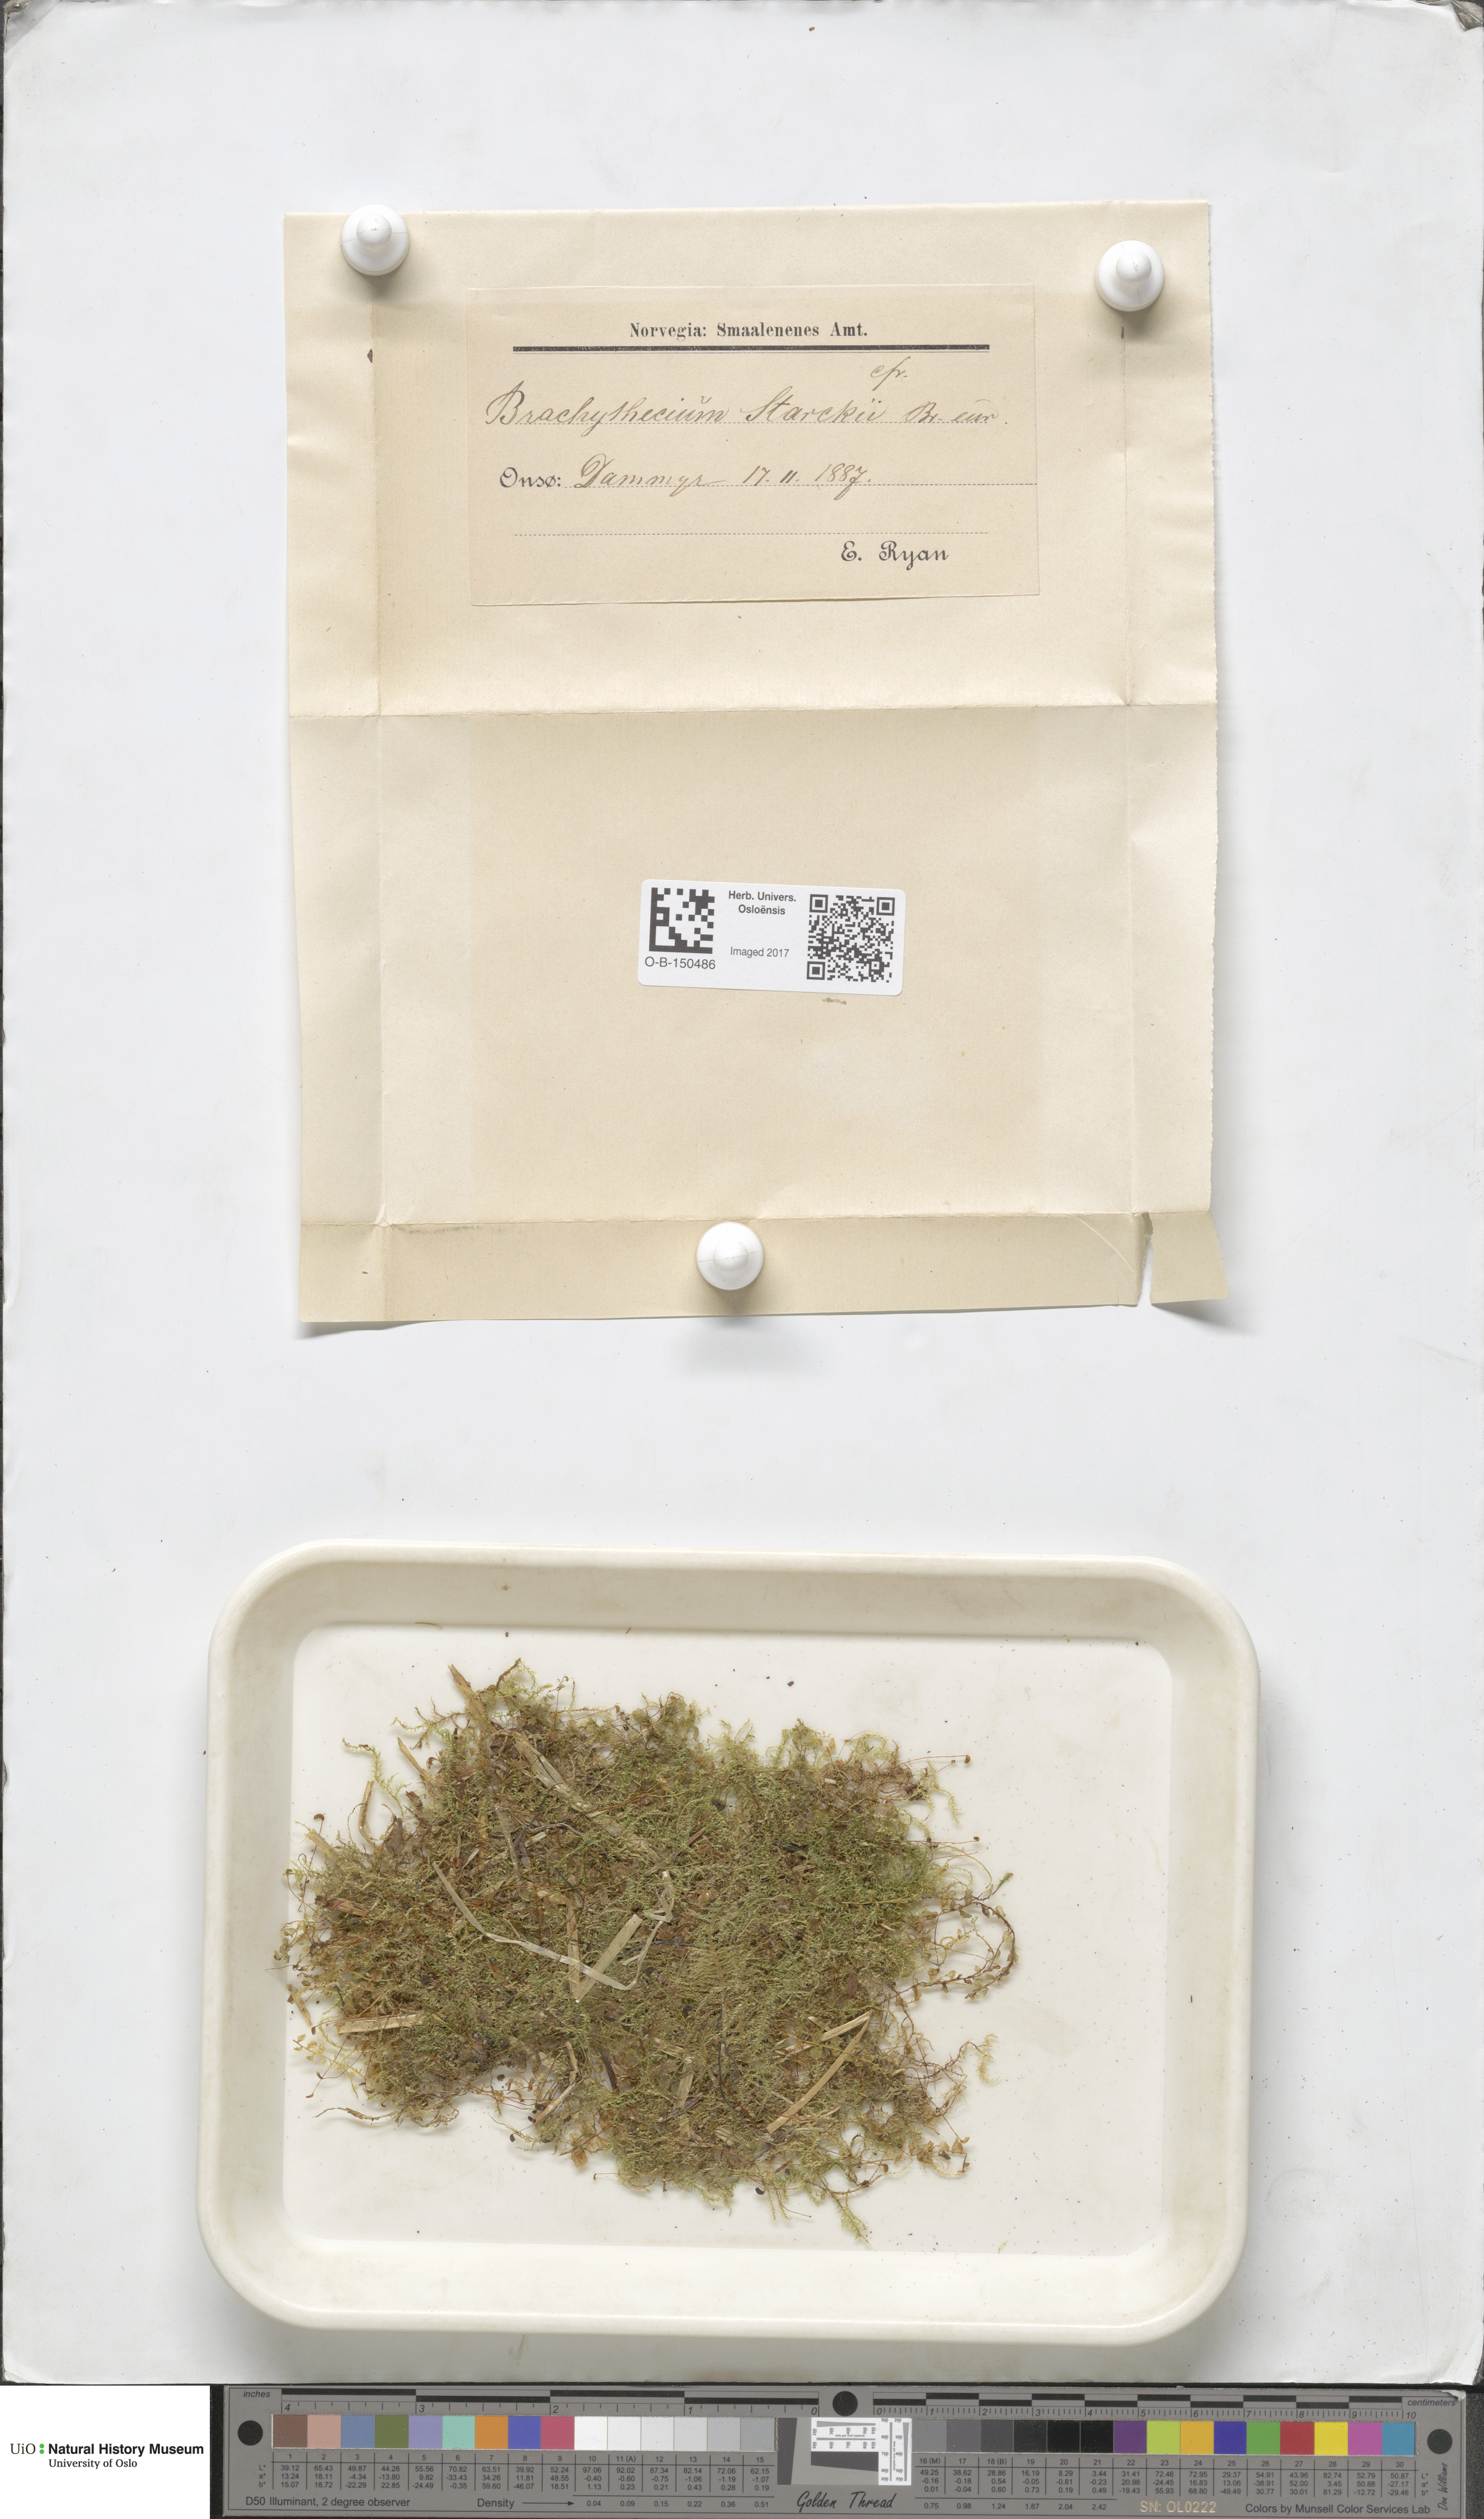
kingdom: Plantae
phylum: Bryophyta
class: Bryopsida
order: Hypnales
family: Brachytheciaceae
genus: Sciuro-hypnum
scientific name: Sciuro-hypnum starkei
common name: Starke's feather-moss
